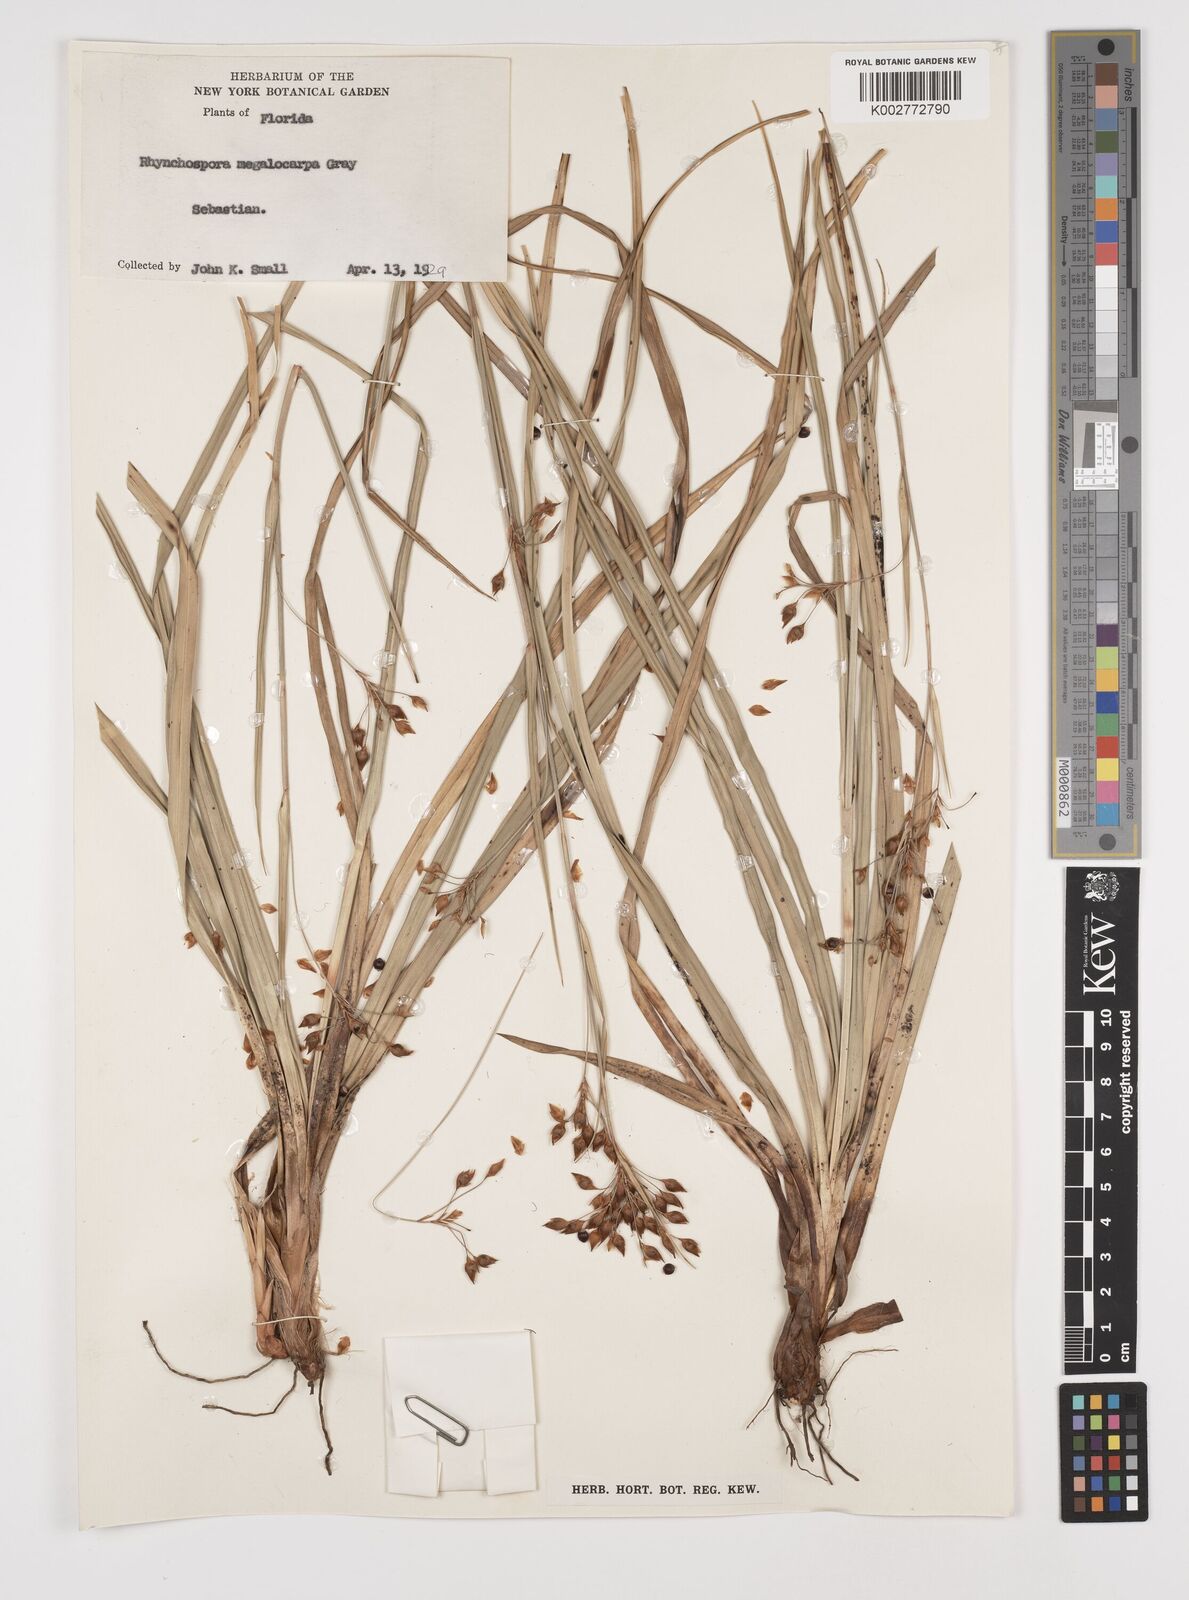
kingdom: Plantae
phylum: Tracheophyta
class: Liliopsida
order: Poales
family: Cyperaceae
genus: Rhynchospora
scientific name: Rhynchospora megalocarpa
